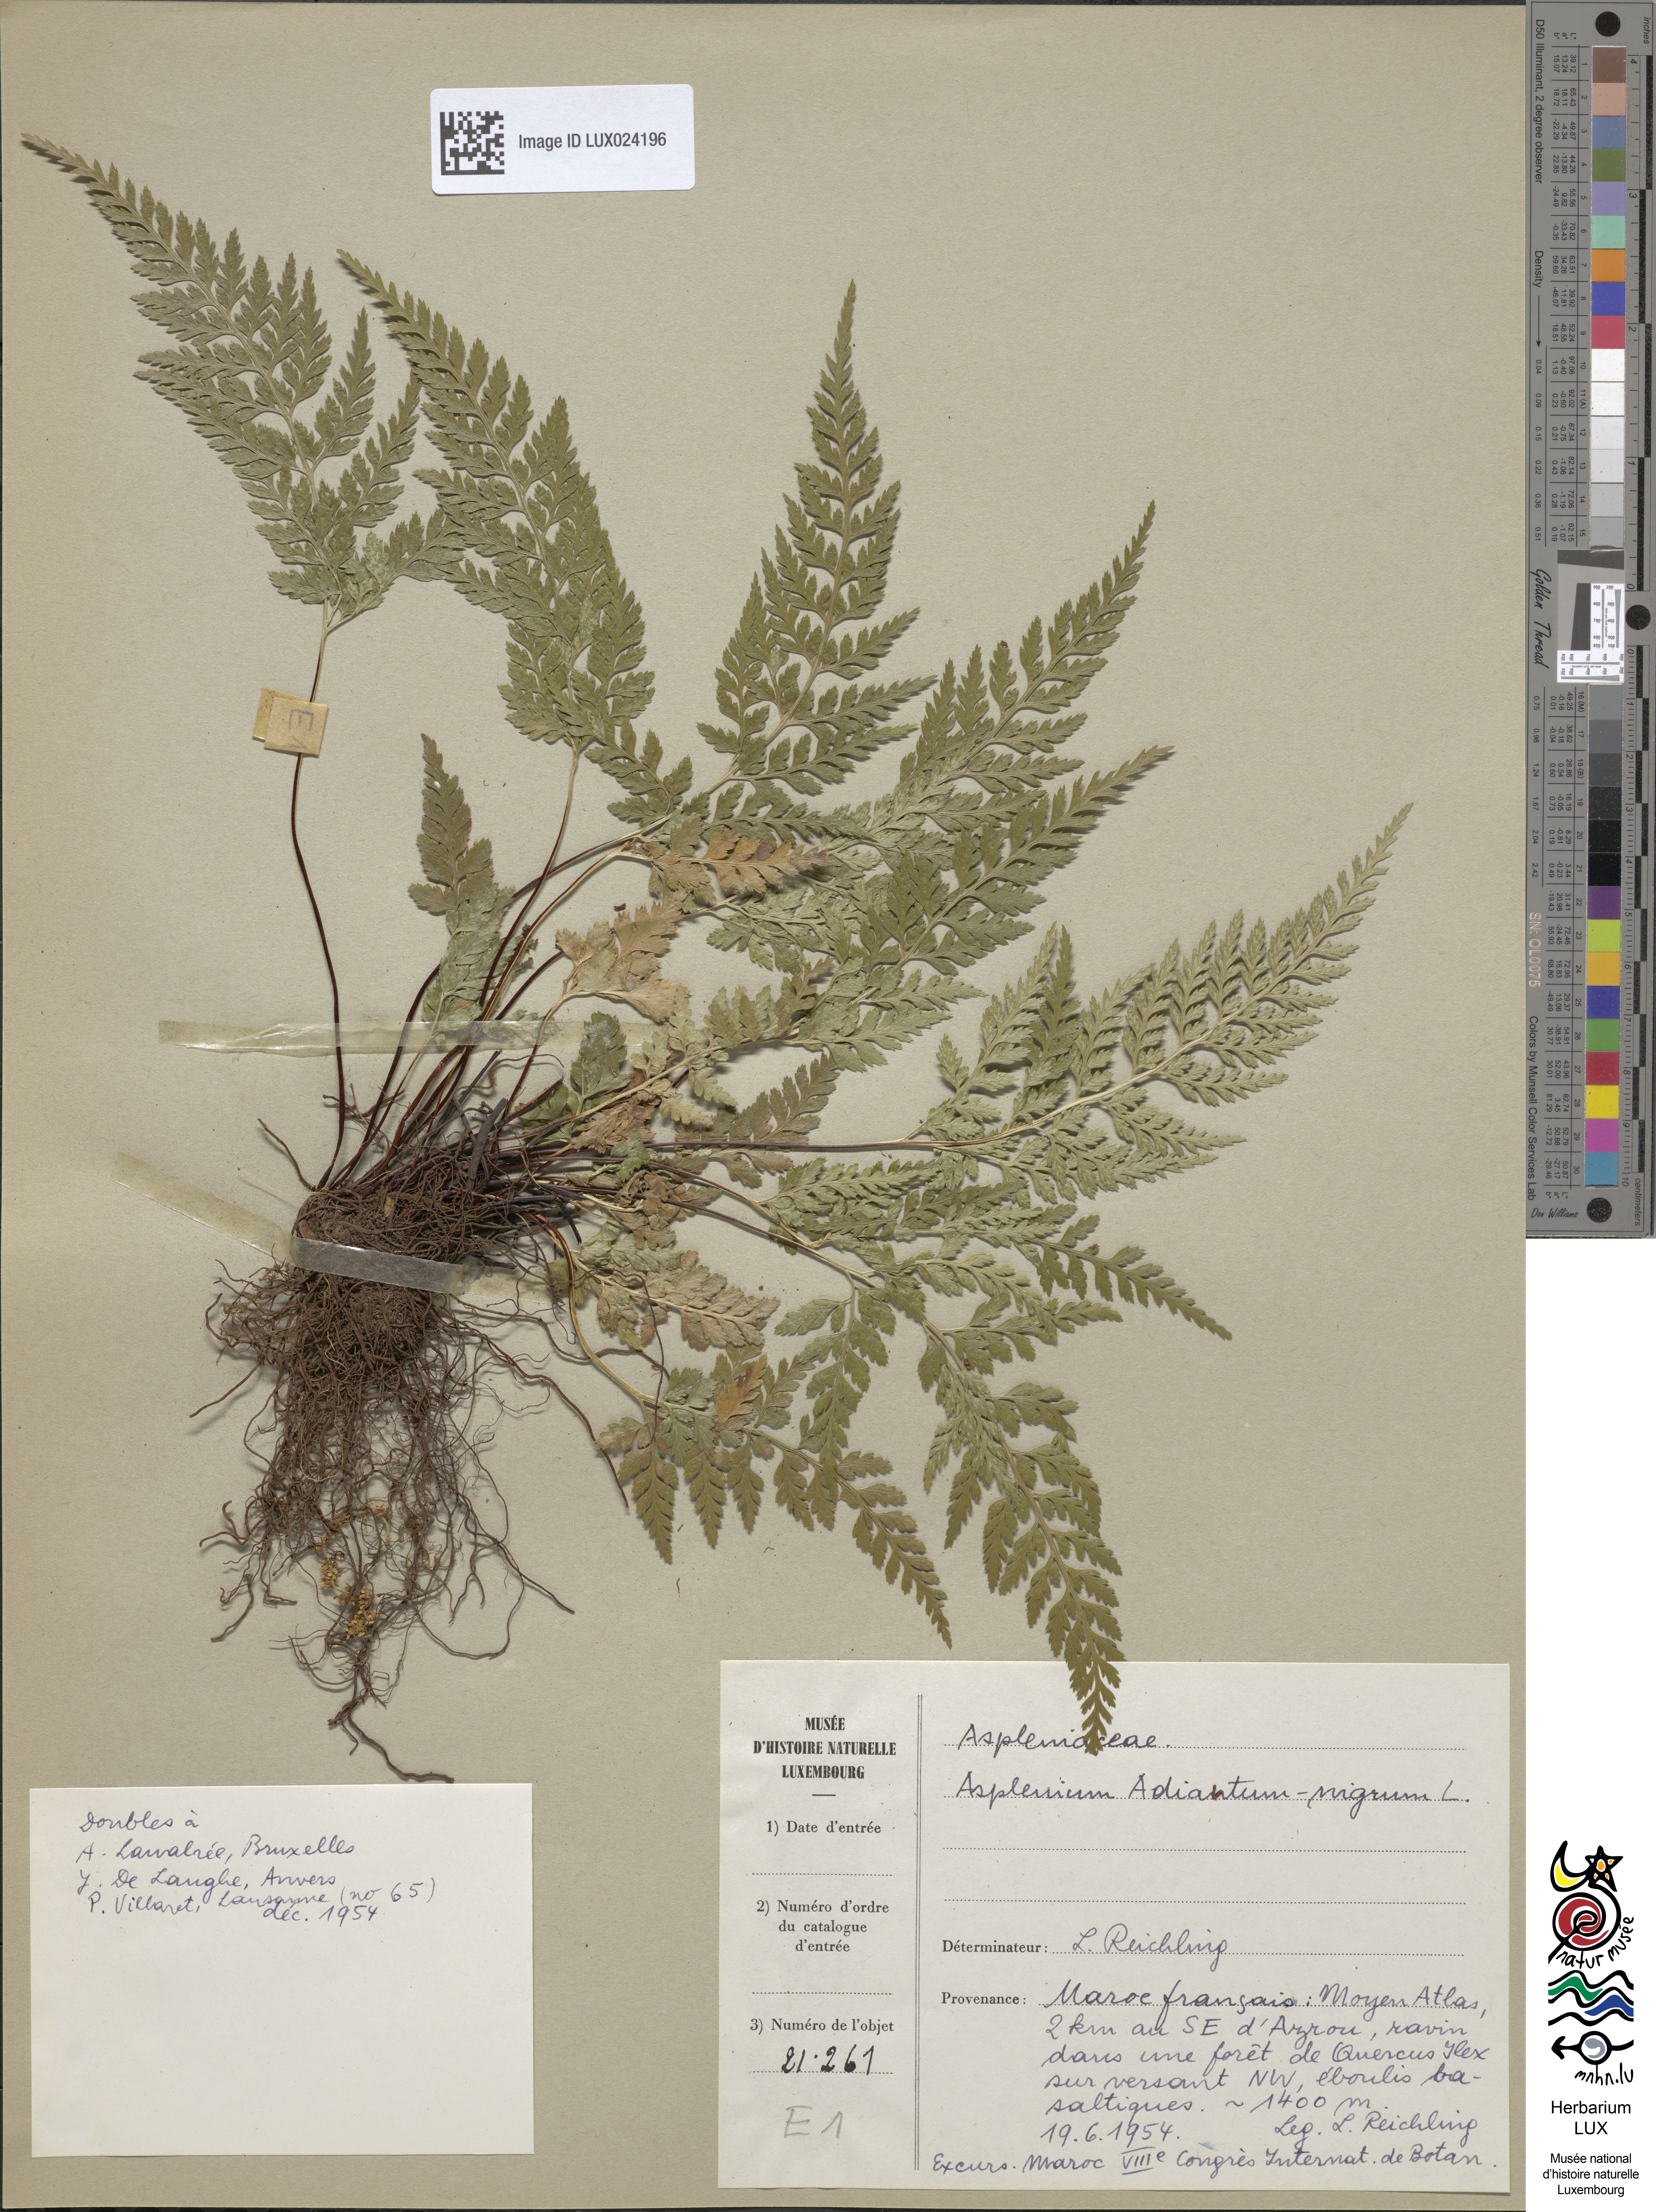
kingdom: Plantae
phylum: Tracheophyta
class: Polypodiopsida
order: Polypodiales
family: Aspleniaceae
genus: Asplenium
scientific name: Asplenium adiantum-nigrum
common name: Black spleenwort
